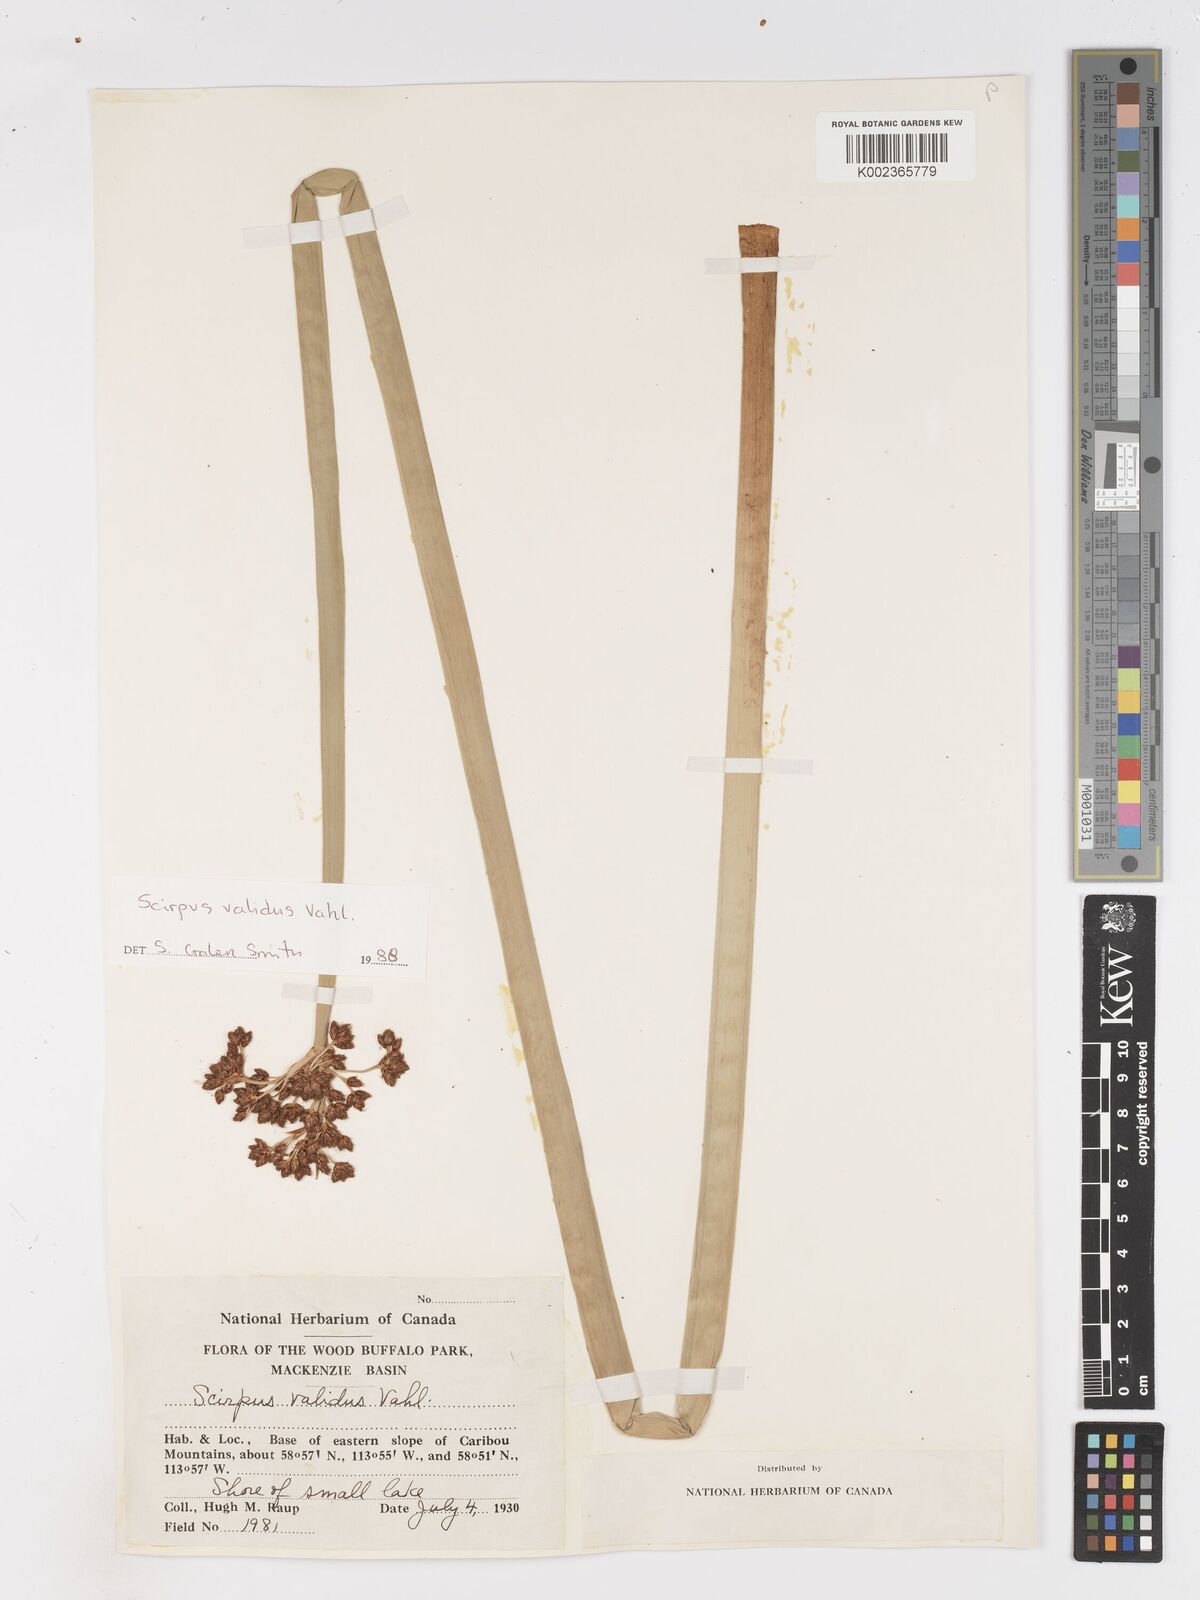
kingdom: Plantae
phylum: Tracheophyta
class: Liliopsida
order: Poales
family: Cyperaceae
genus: Schoenoplectus
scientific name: Schoenoplectus tabernaemontani
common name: Grey club-rush
